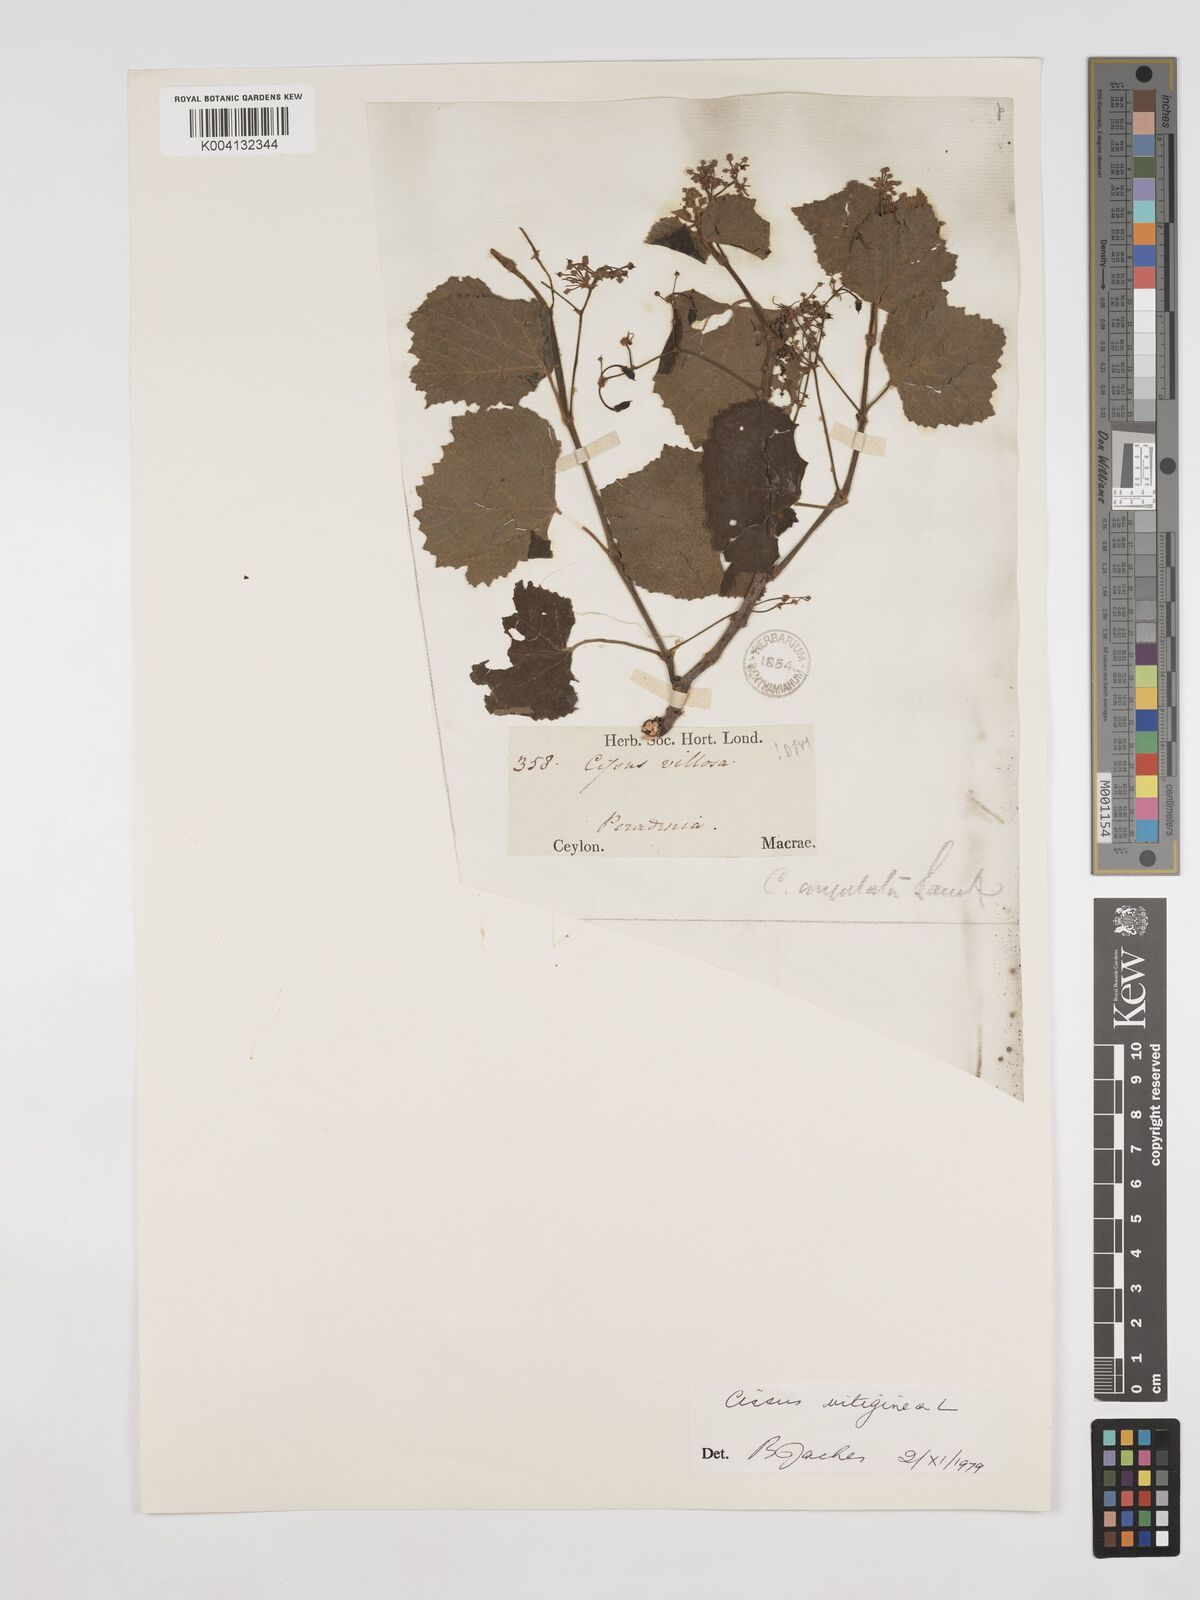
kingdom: Plantae
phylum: Tracheophyta
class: Magnoliopsida
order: Vitales
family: Vitaceae
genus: Cissus
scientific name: Cissus vitiginea
